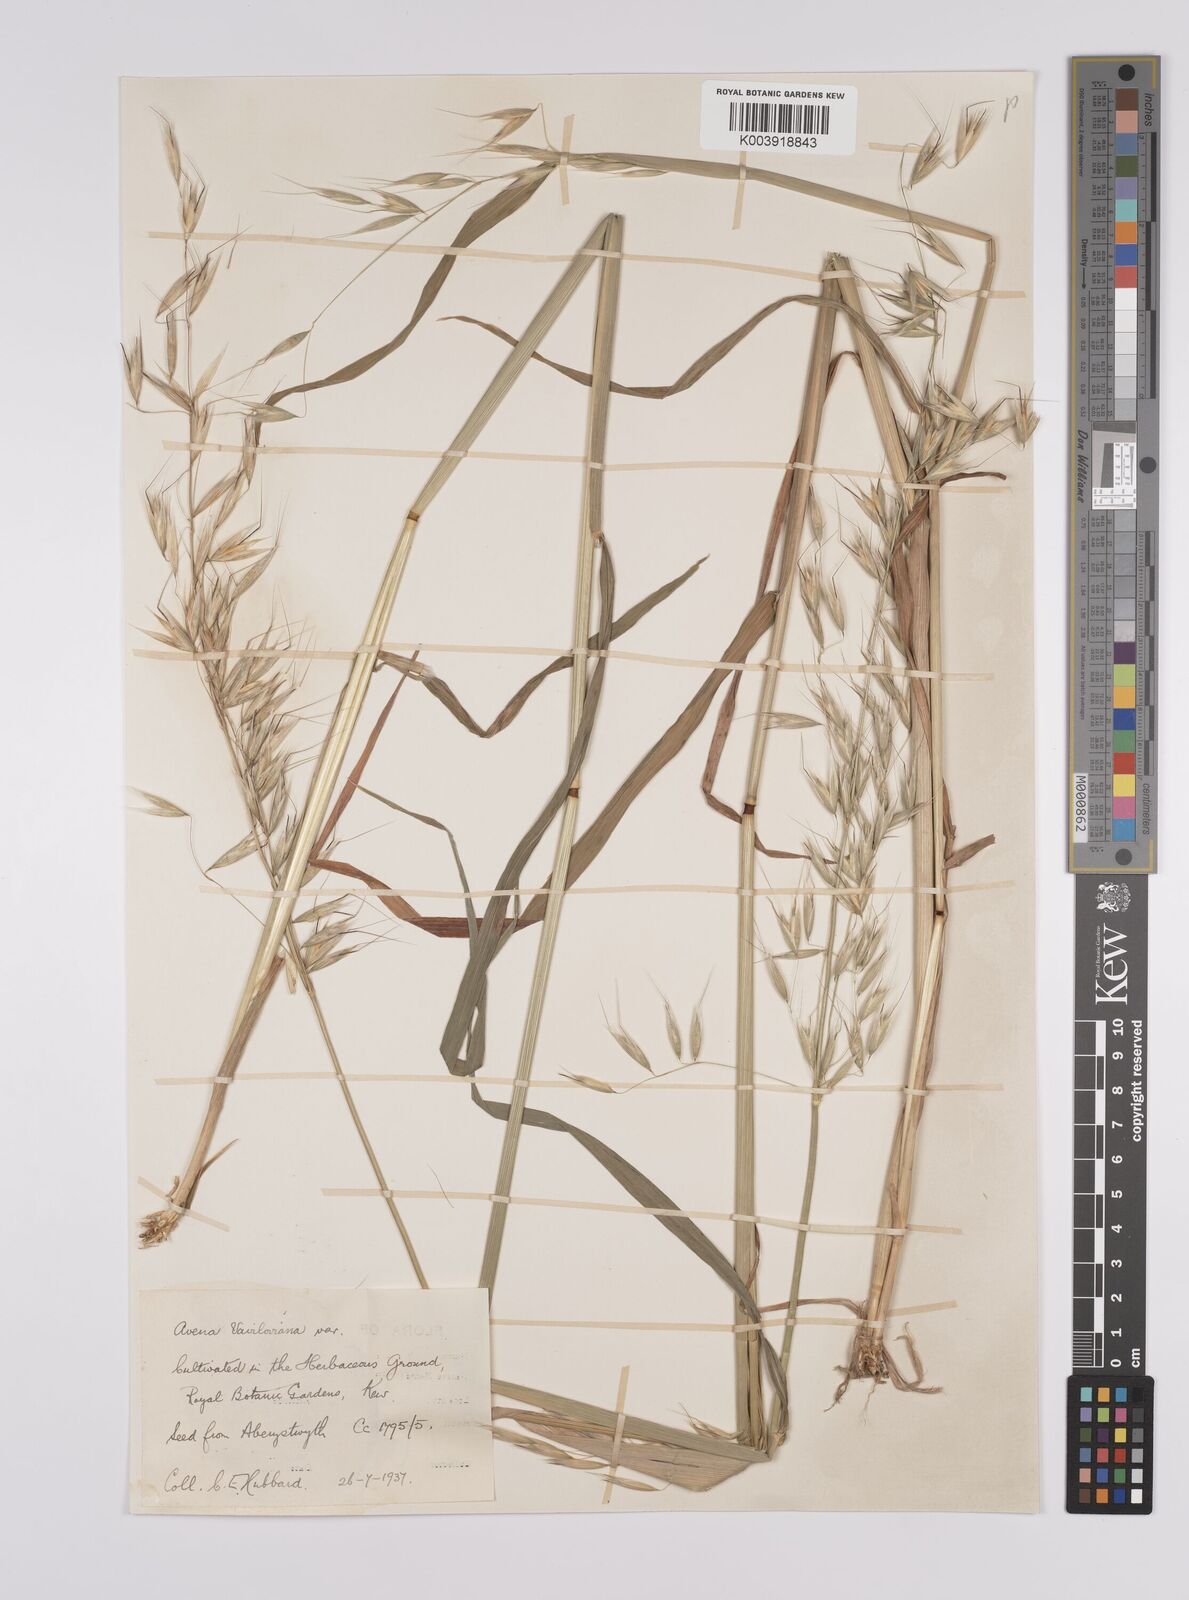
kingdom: Plantae
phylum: Tracheophyta
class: Liliopsida
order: Poales
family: Poaceae
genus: Avena
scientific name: Avena vaviloviana
